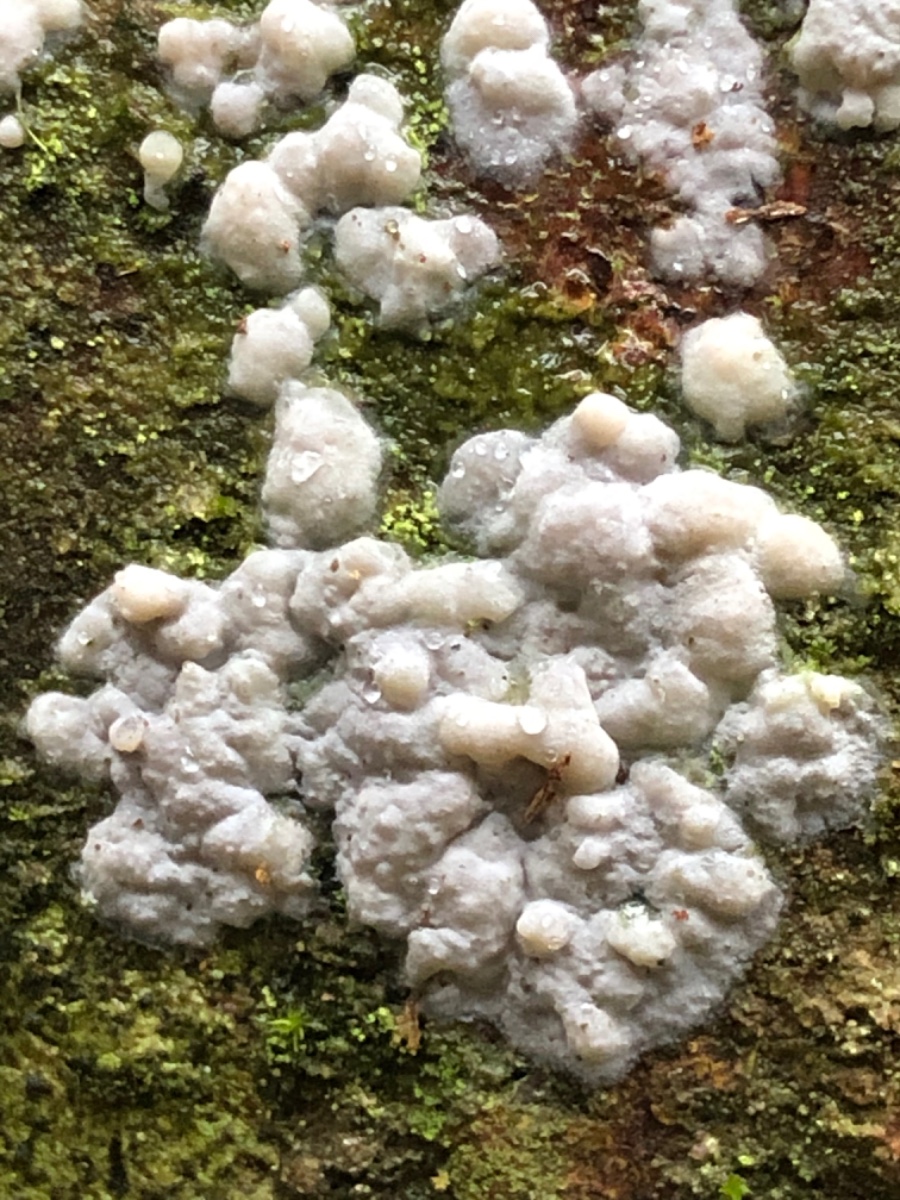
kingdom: Fungi
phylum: Basidiomycota
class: Agaricomycetes
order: Corticiales
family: Corticiaceae
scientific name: Corticiaceae
